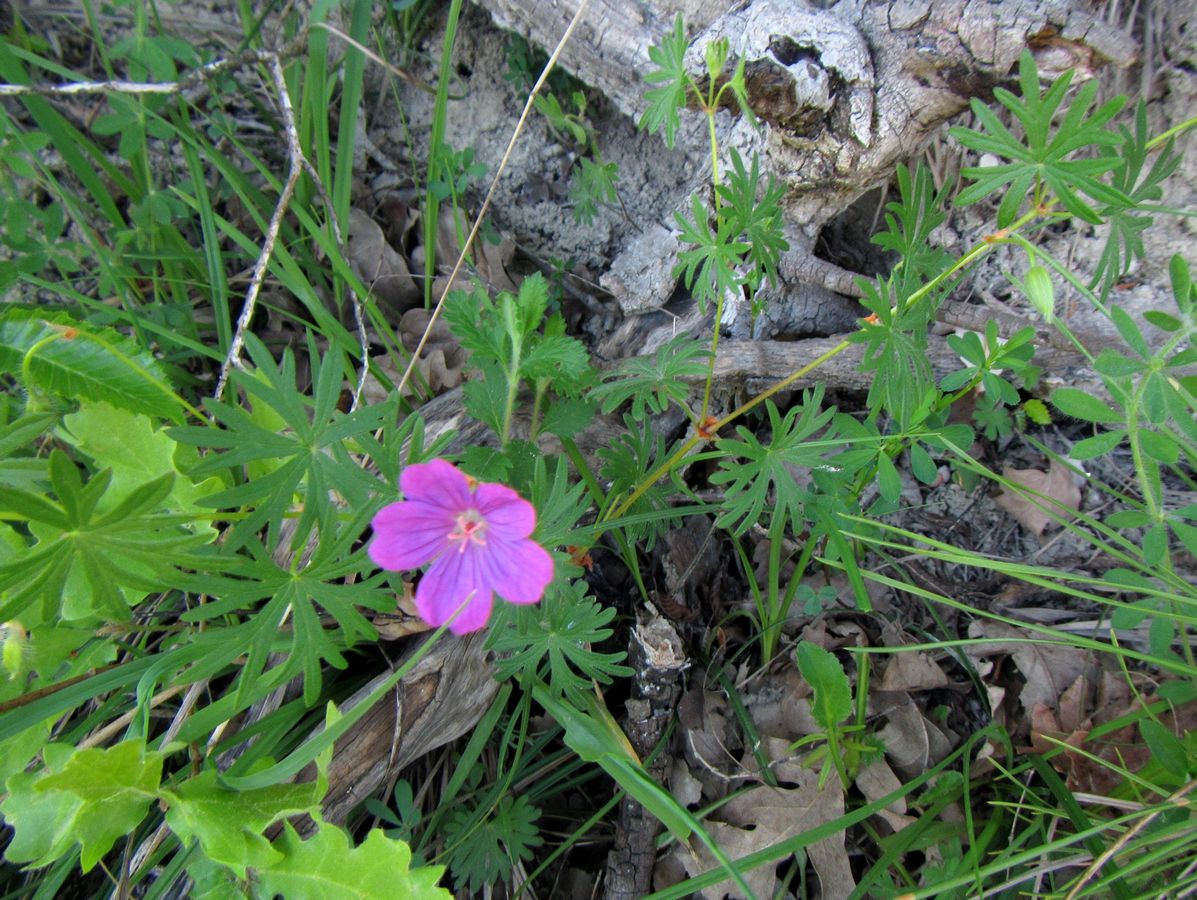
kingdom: Plantae
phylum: Tracheophyta
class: Magnoliopsida
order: Geraniales
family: Geraniaceae
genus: Geranium
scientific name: Geranium sanguineum
